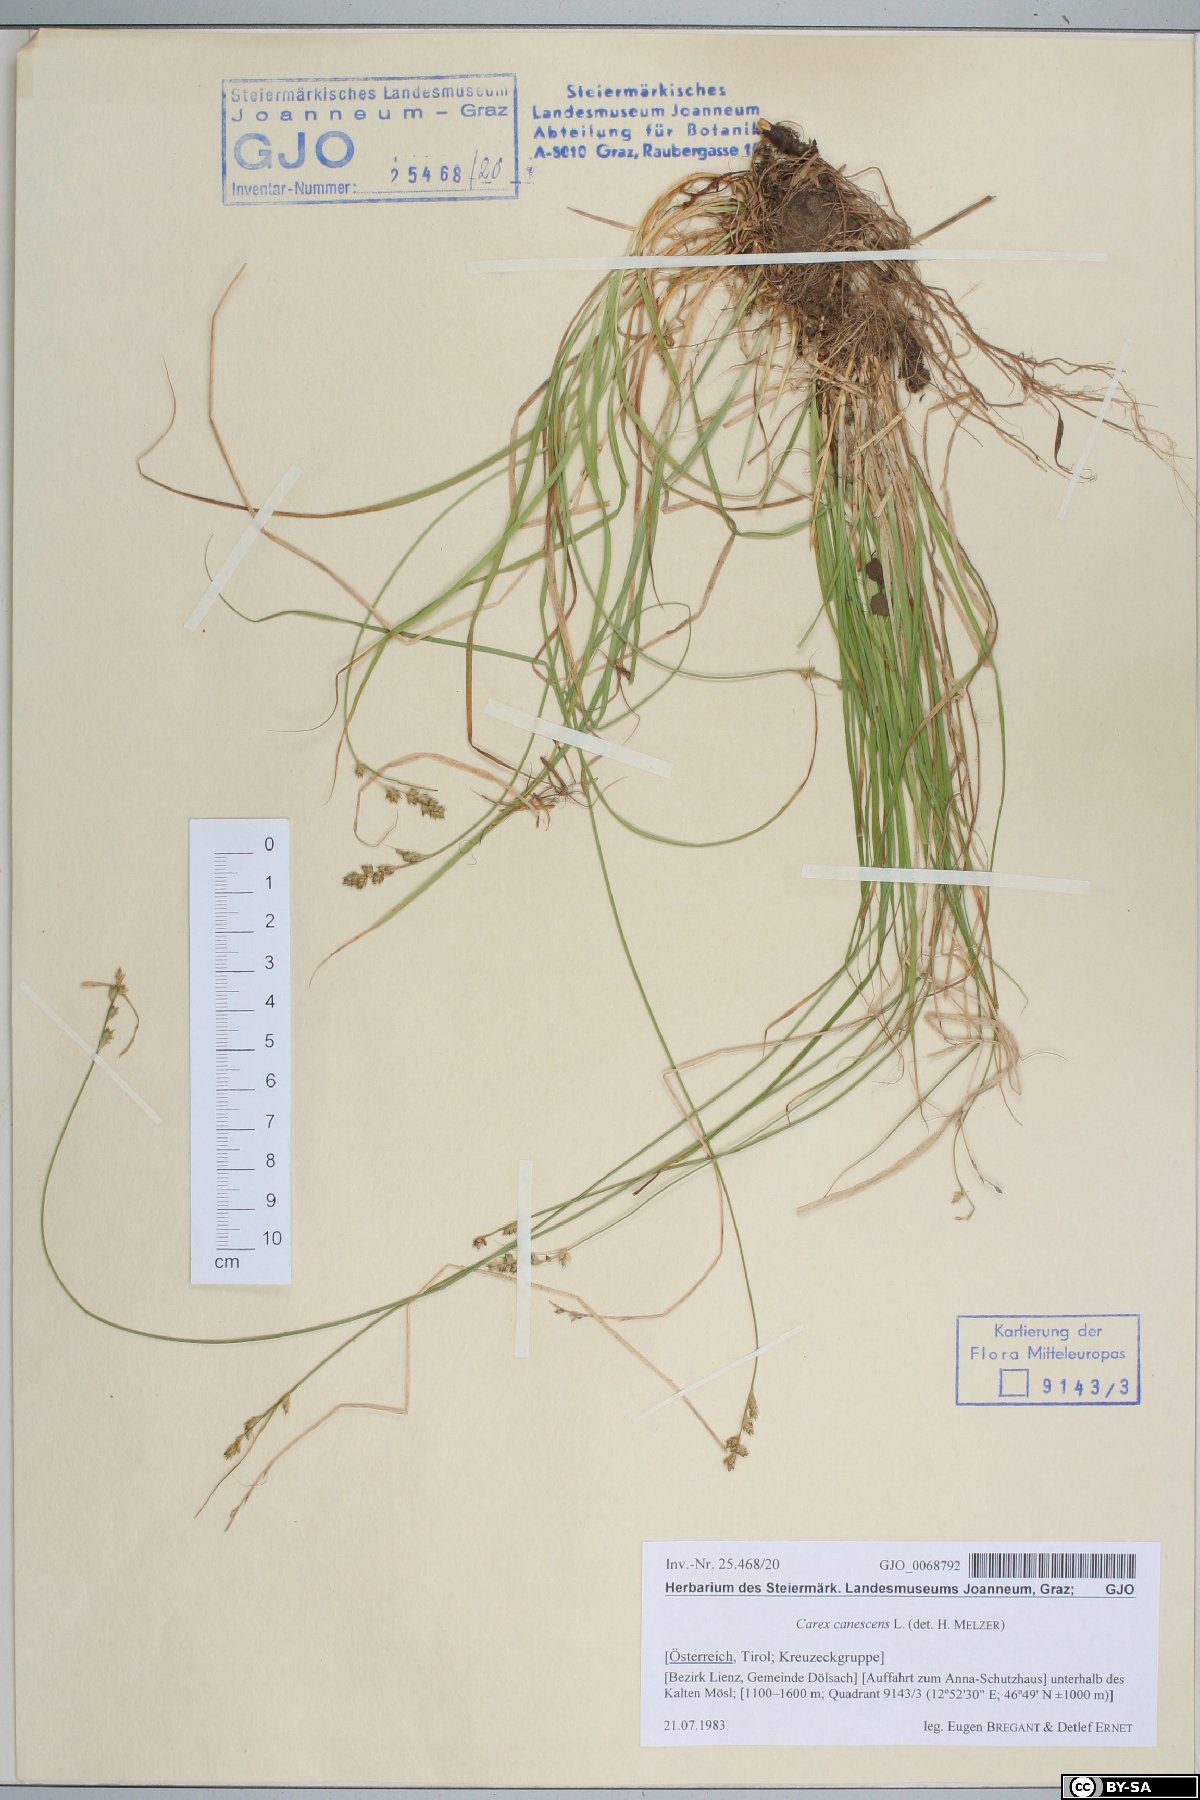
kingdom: Plantae
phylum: Tracheophyta
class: Liliopsida
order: Poales
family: Cyperaceae
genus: Carex
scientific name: Carex canescens
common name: White sedge
